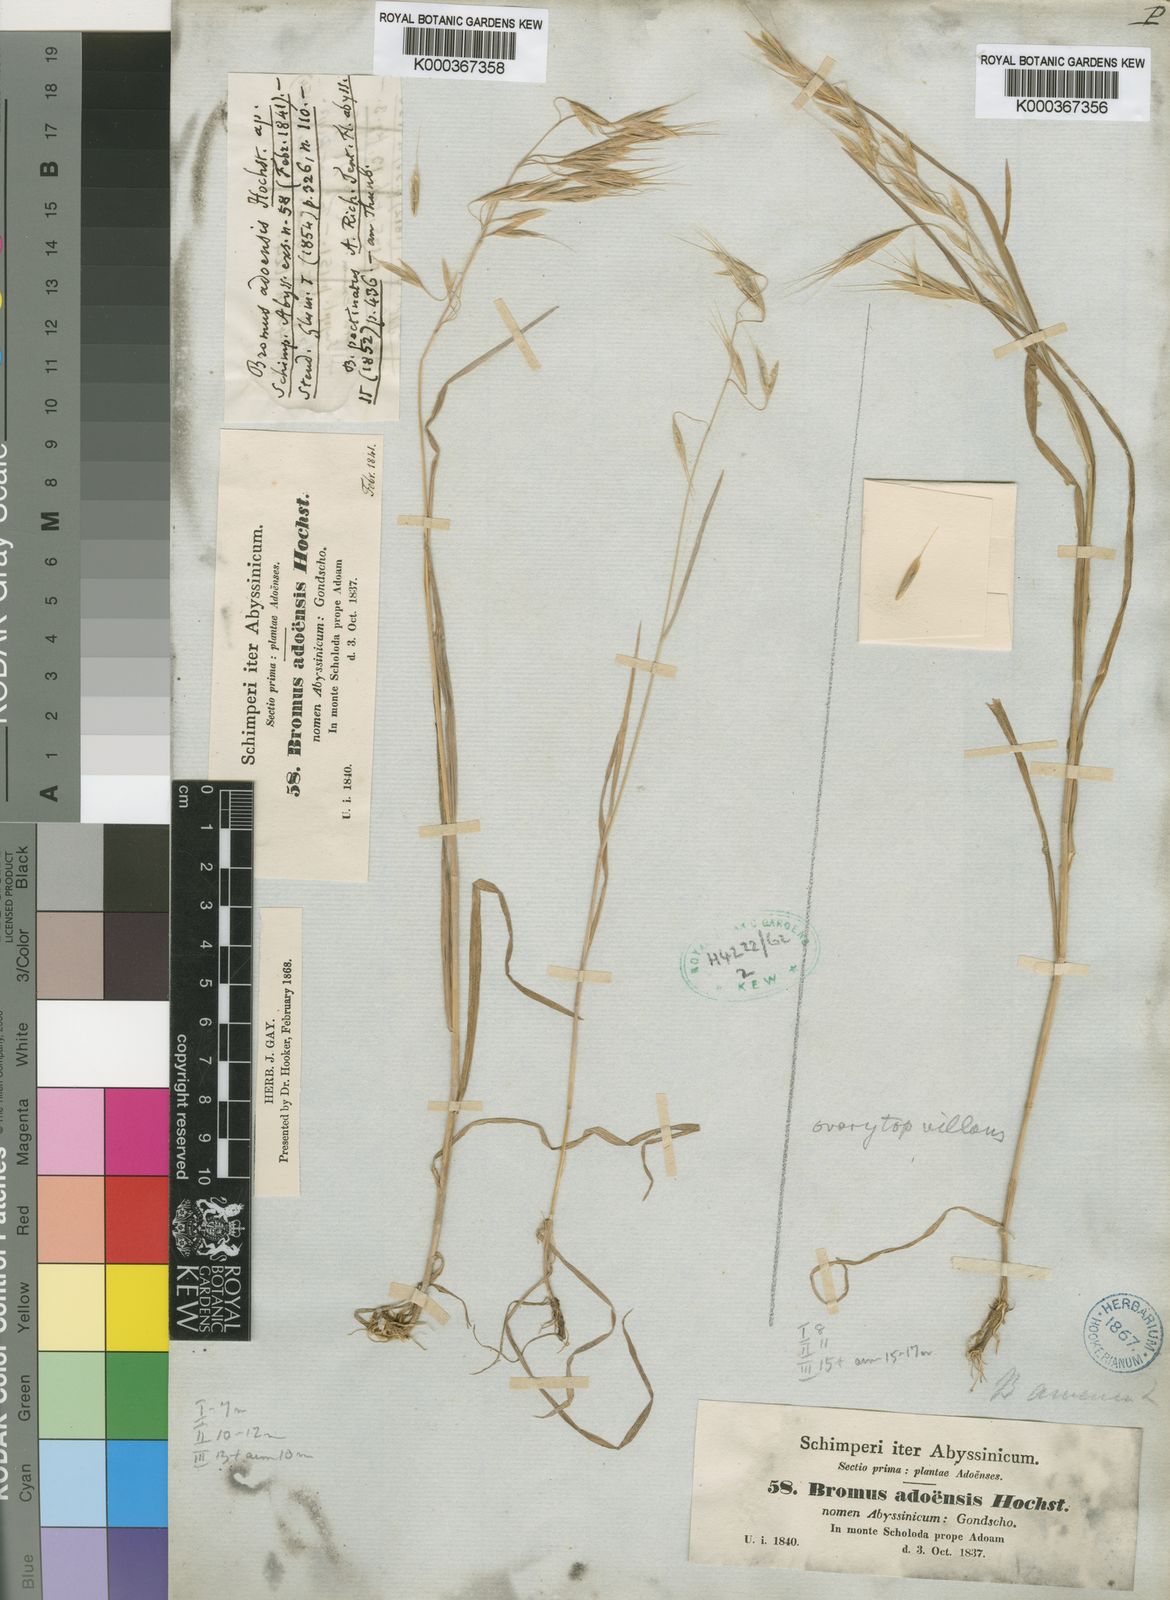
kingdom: Plantae
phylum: Tracheophyta
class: Liliopsida
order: Poales
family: Poaceae
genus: Bromus
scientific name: Bromus pectinatus
